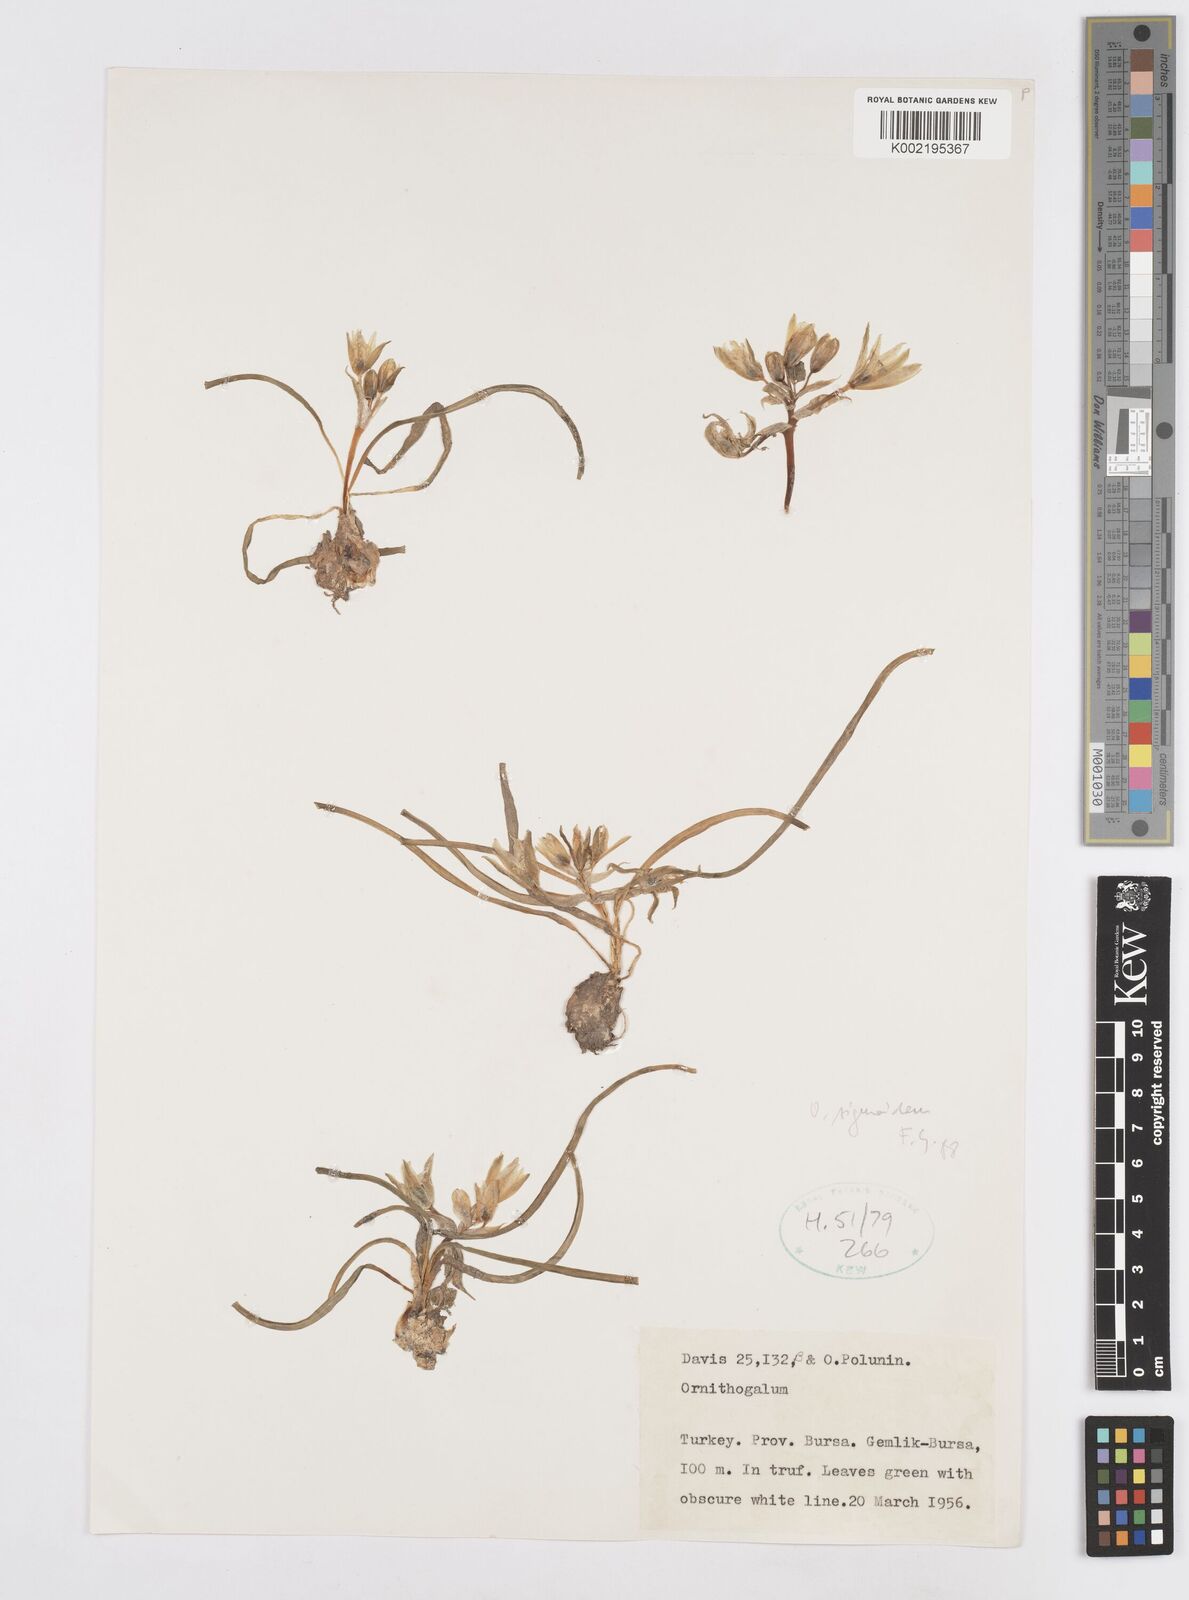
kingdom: Plantae
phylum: Tracheophyta
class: Liliopsida
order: Asparagales
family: Asparagaceae
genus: Ornithogalum
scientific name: Ornithogalum sigmoideum
